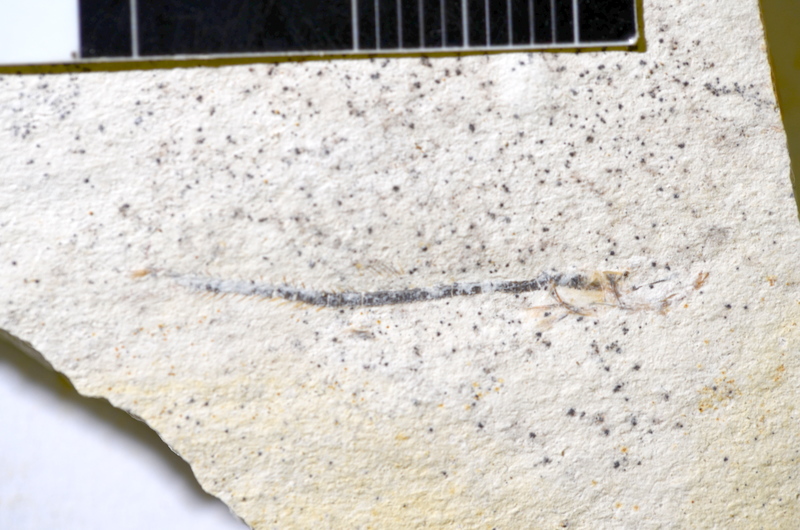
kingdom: Animalia
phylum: Chordata
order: Salmoniformes
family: Orthogonikleithridae
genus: Orthogonikleithrus
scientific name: Orthogonikleithrus hoelli
